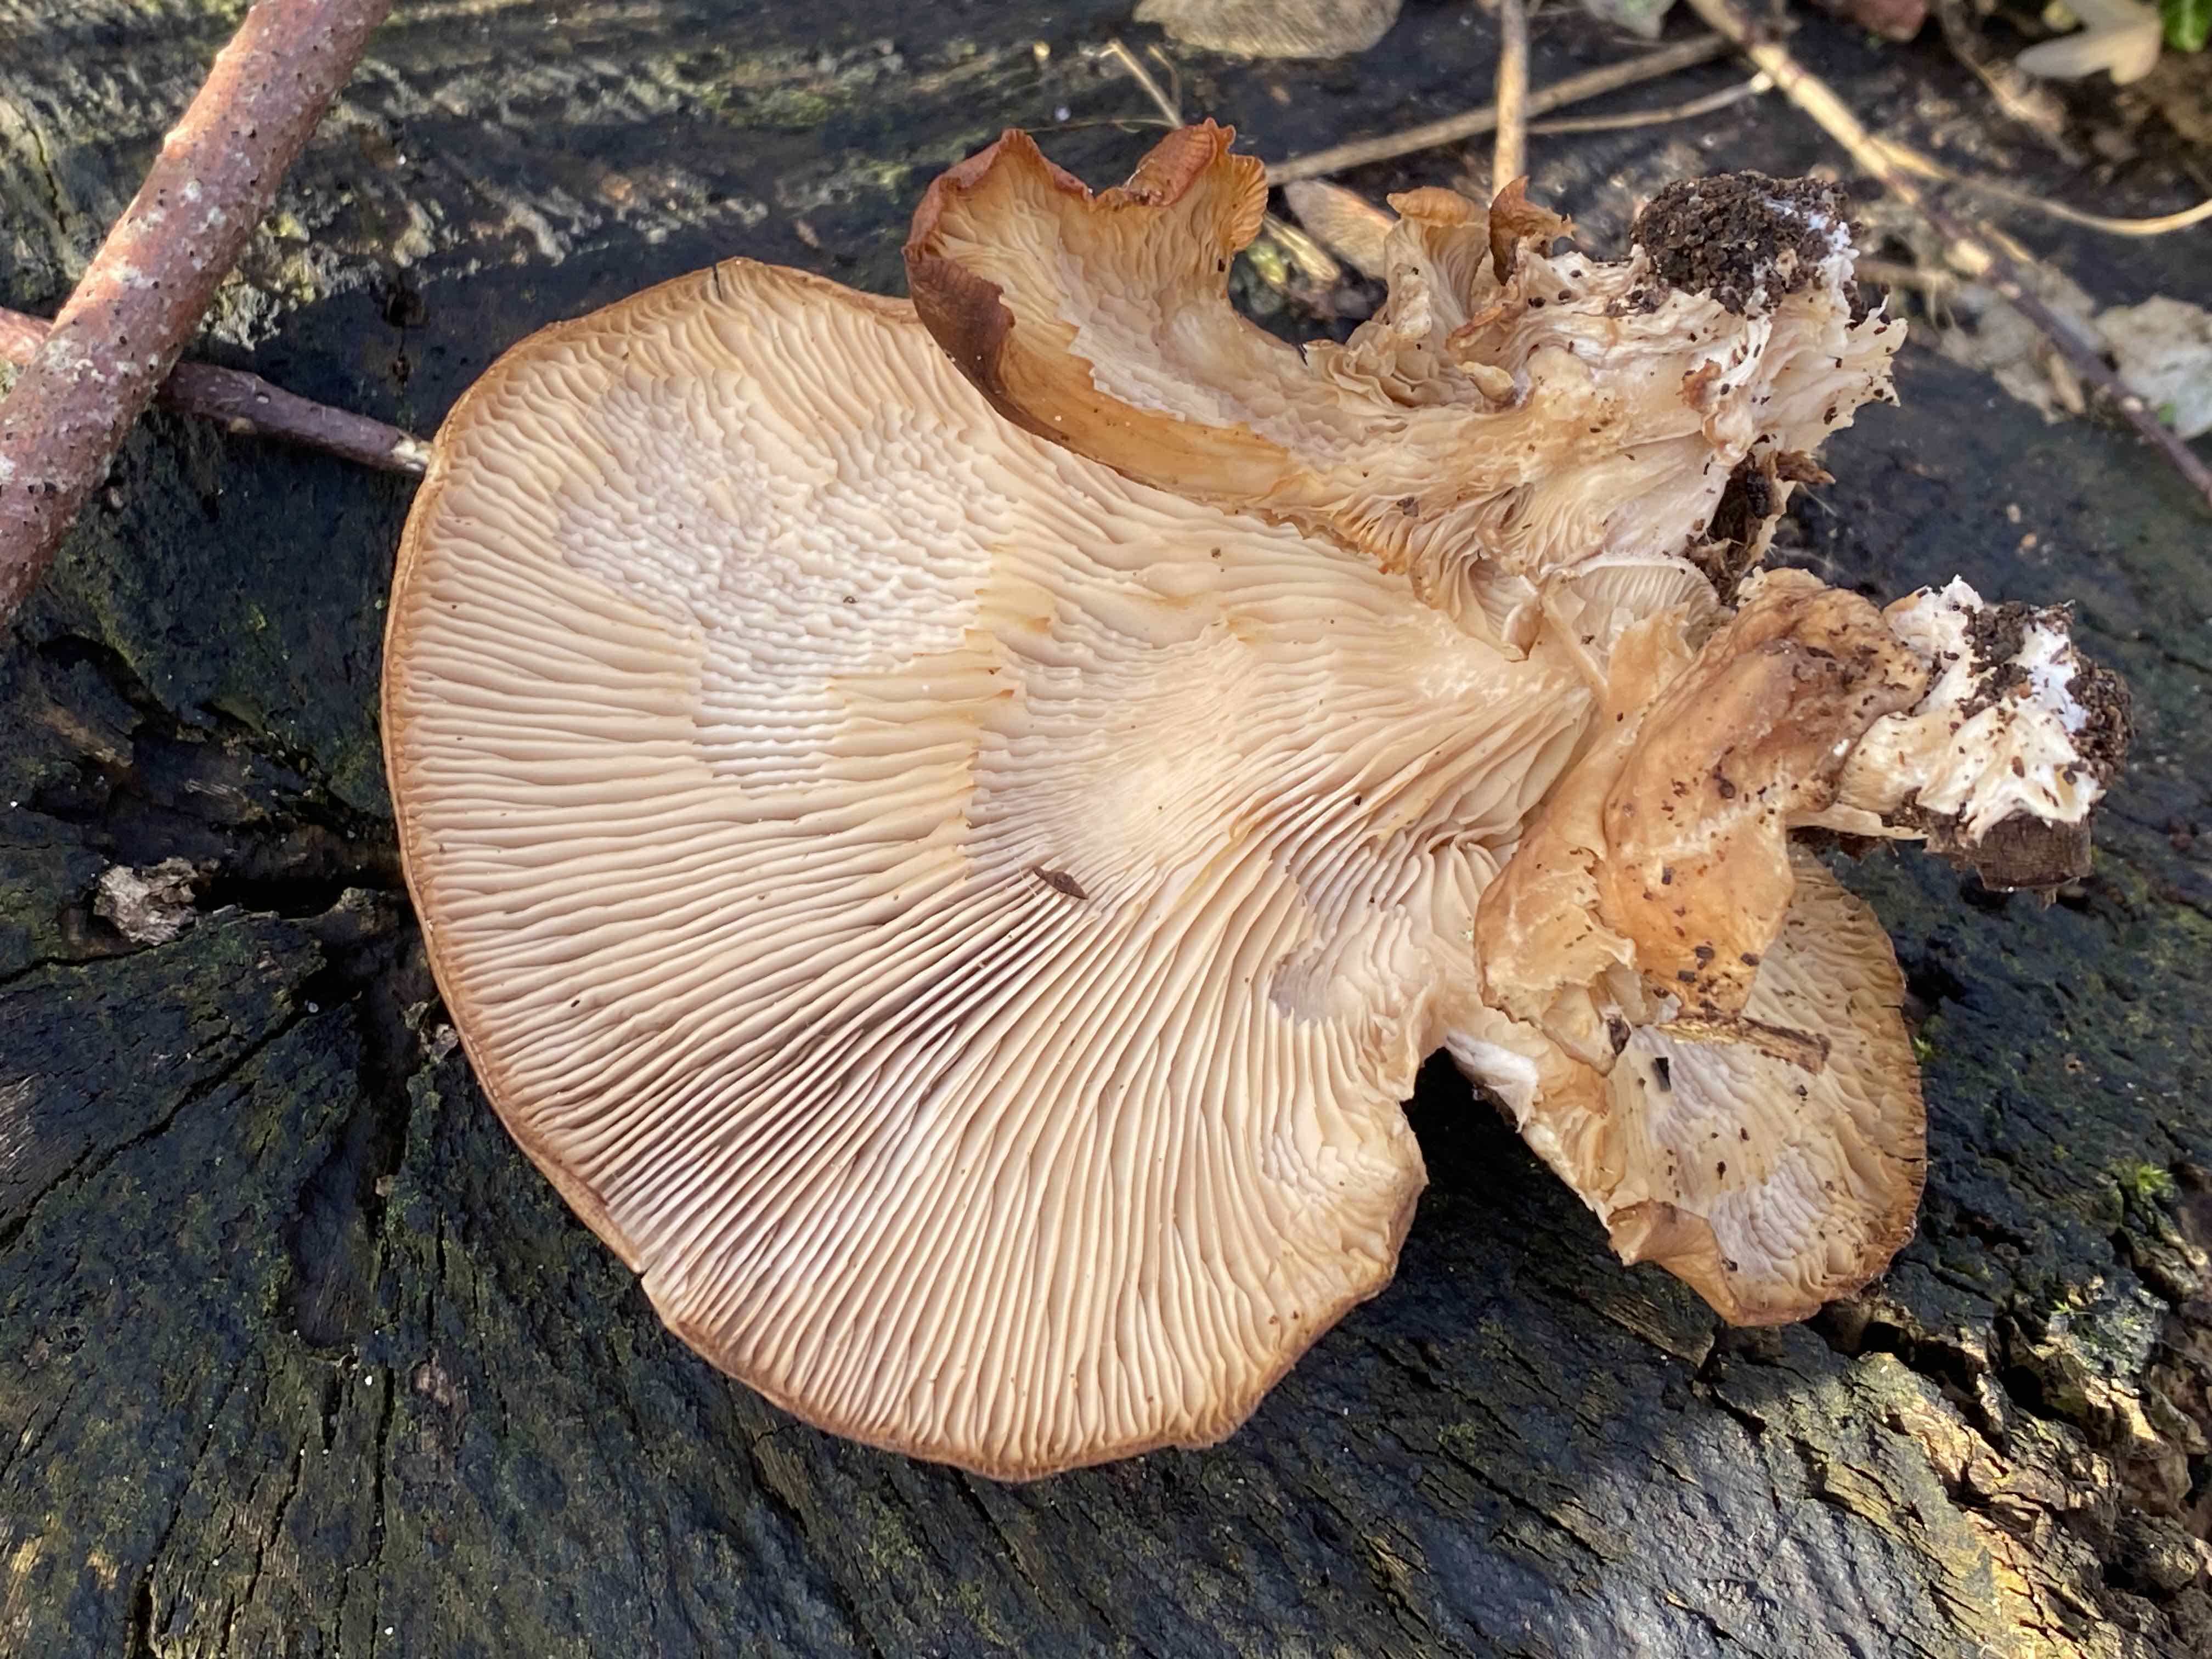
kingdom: Fungi
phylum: Basidiomycota
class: Agaricomycetes
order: Agaricales
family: Pleurotaceae
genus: Pleurotus
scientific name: Pleurotus ostreatus
